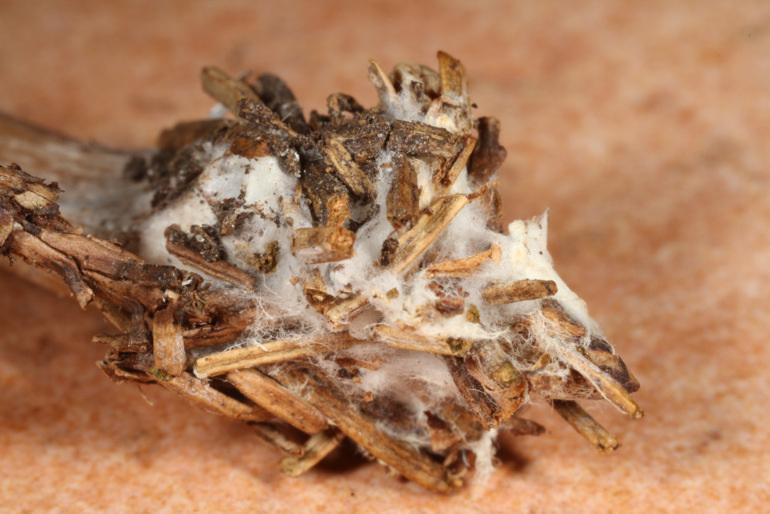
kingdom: Fungi
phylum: Basidiomycota
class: Agaricomycetes
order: Agaricales
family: Tricholomataceae
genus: Clitocybe
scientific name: Clitocybe fragrans
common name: vellugtende tragthat
